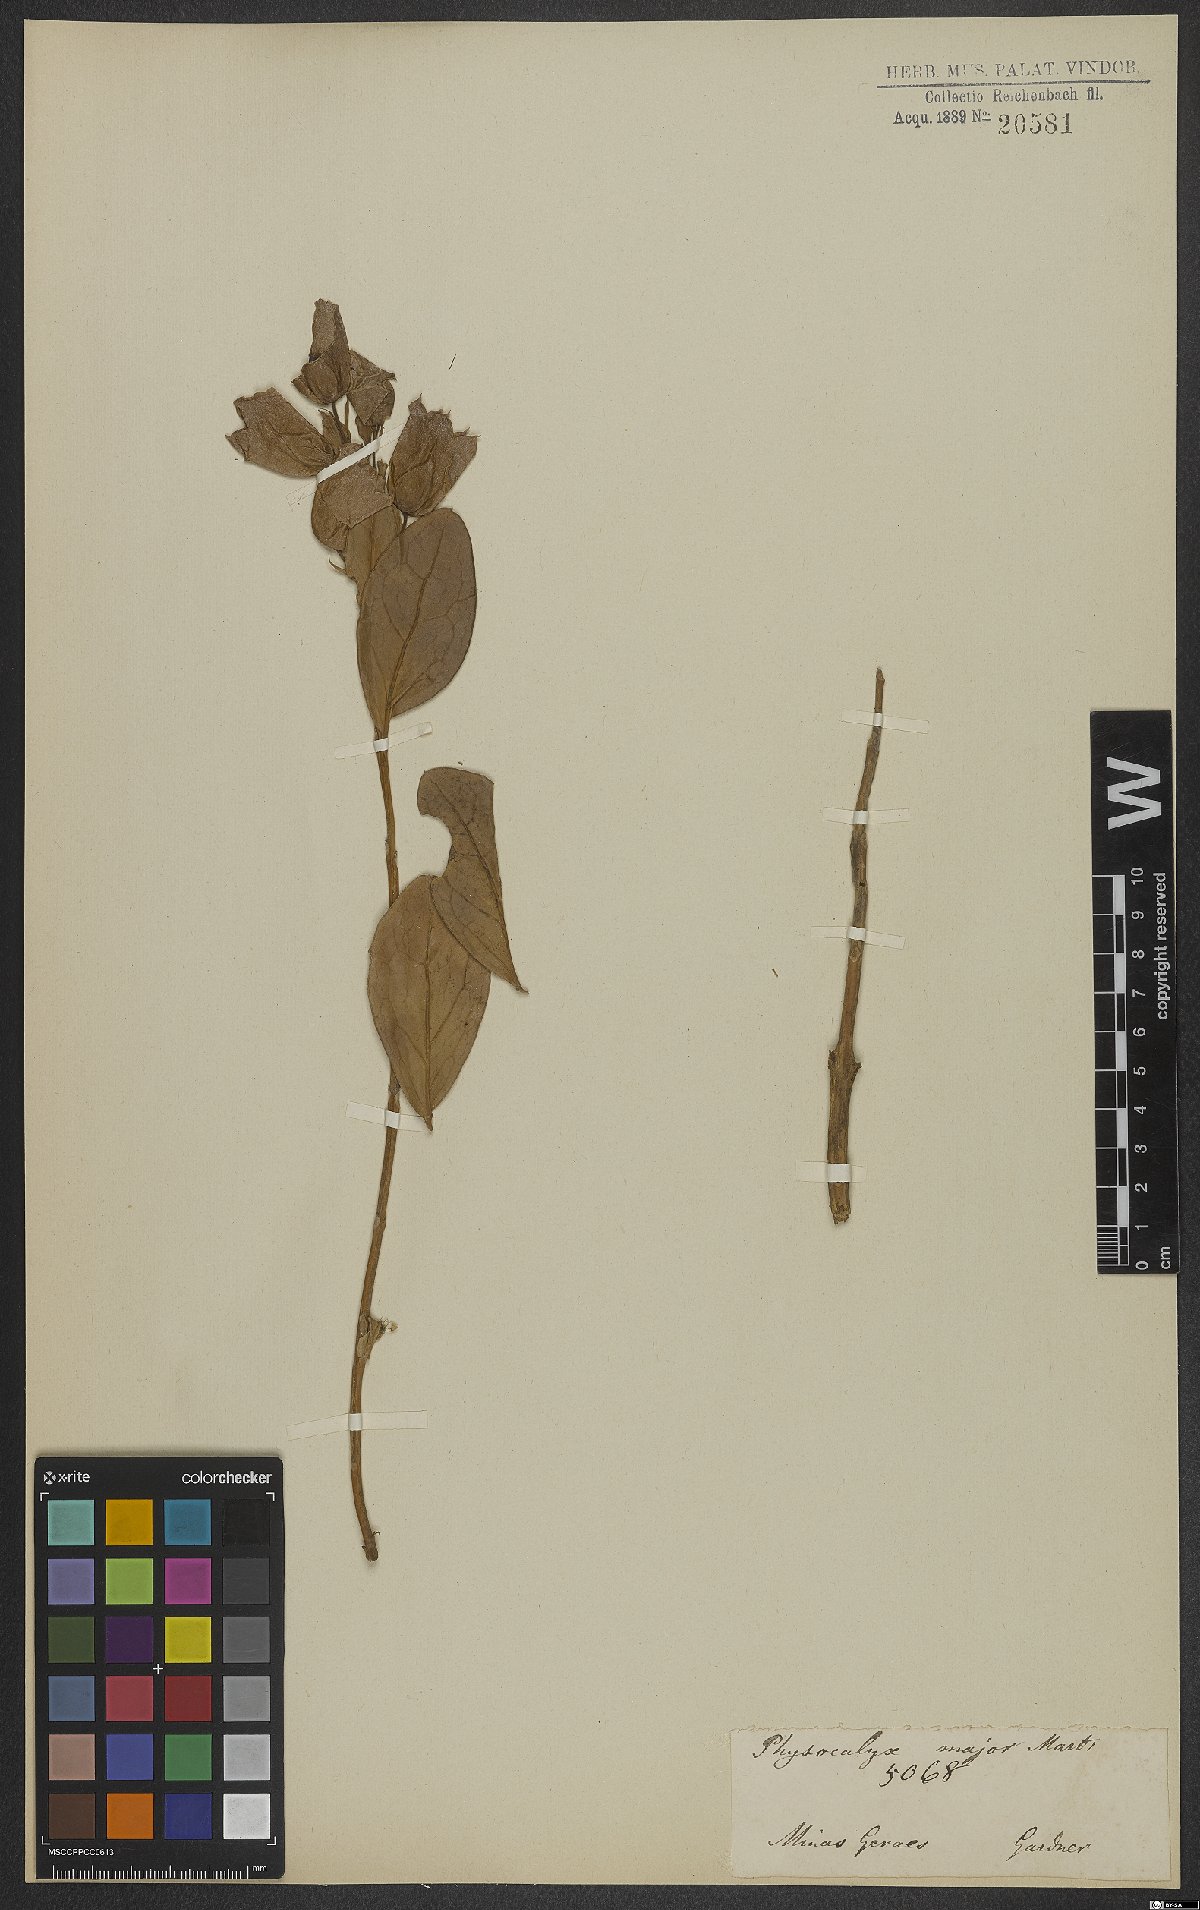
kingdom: Plantae
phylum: Tracheophyta
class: Magnoliopsida
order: Lamiales
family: Orobanchaceae
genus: Physocalyx
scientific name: Physocalyx major
